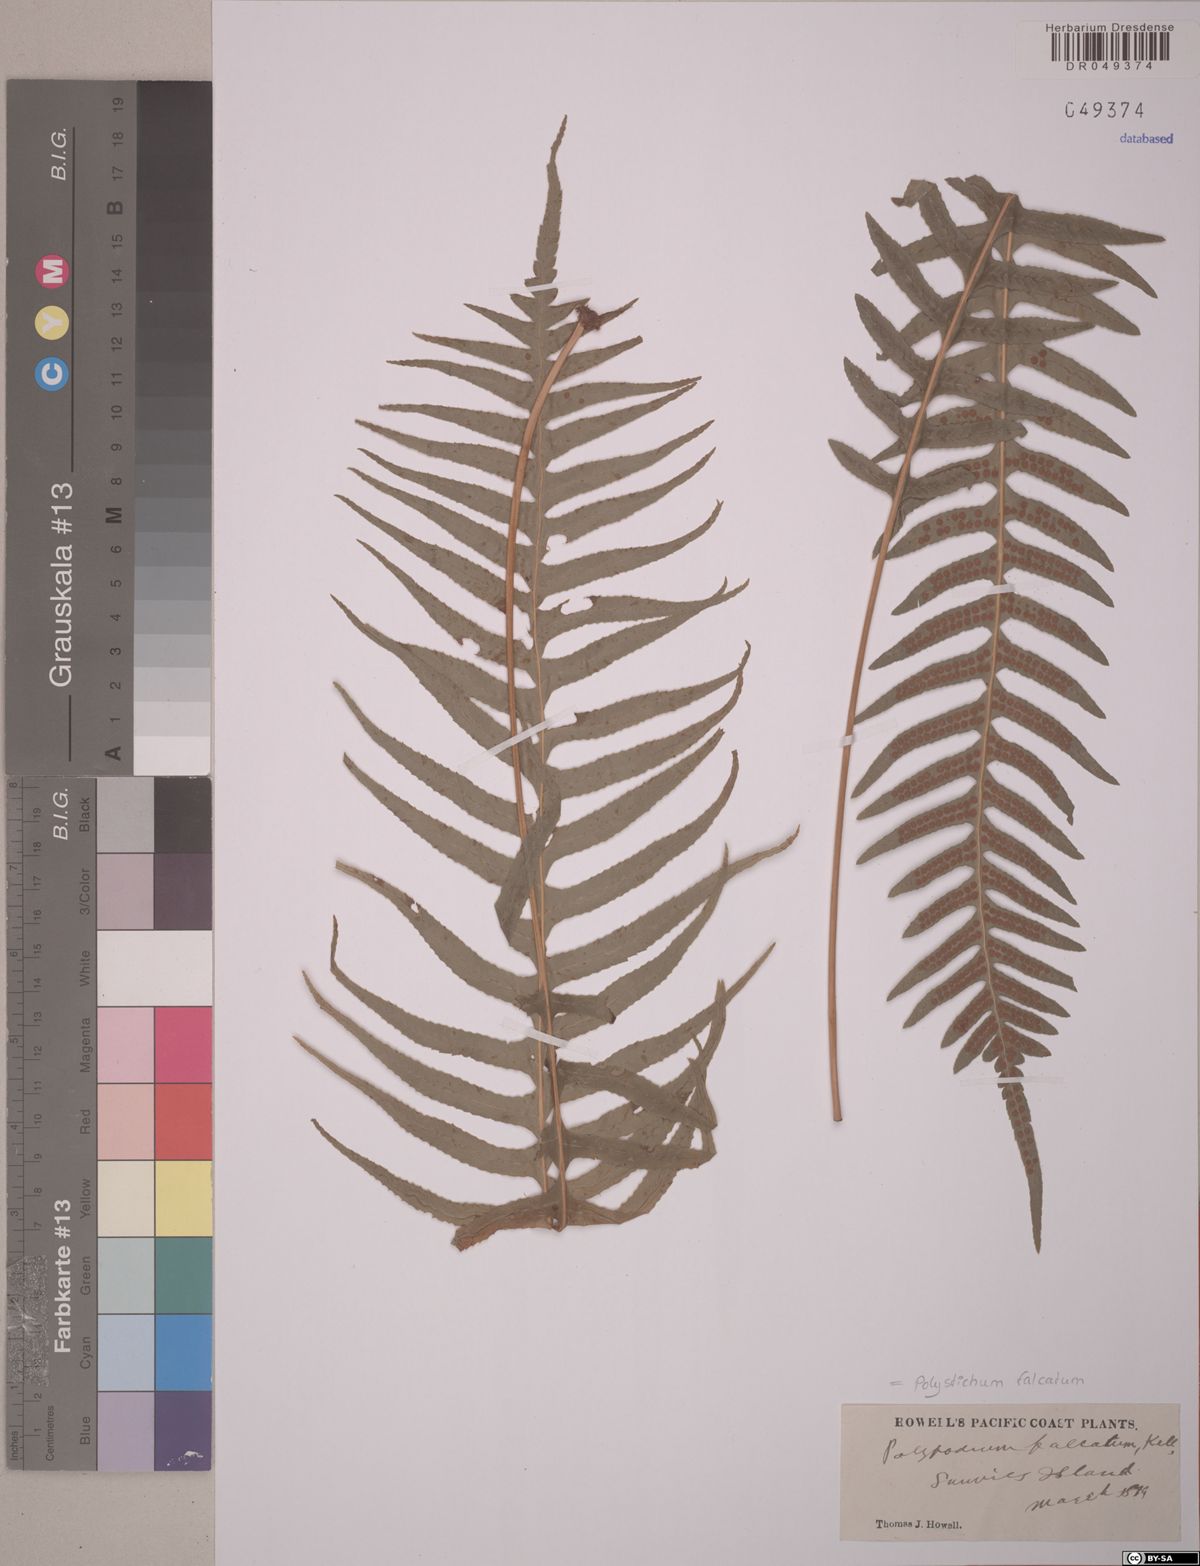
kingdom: Plantae
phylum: Tracheophyta
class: Polypodiopsida
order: Polypodiales
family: Dryopteridaceae
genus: Cyrtomium
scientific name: Cyrtomium falcatum
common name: House holly-fern
